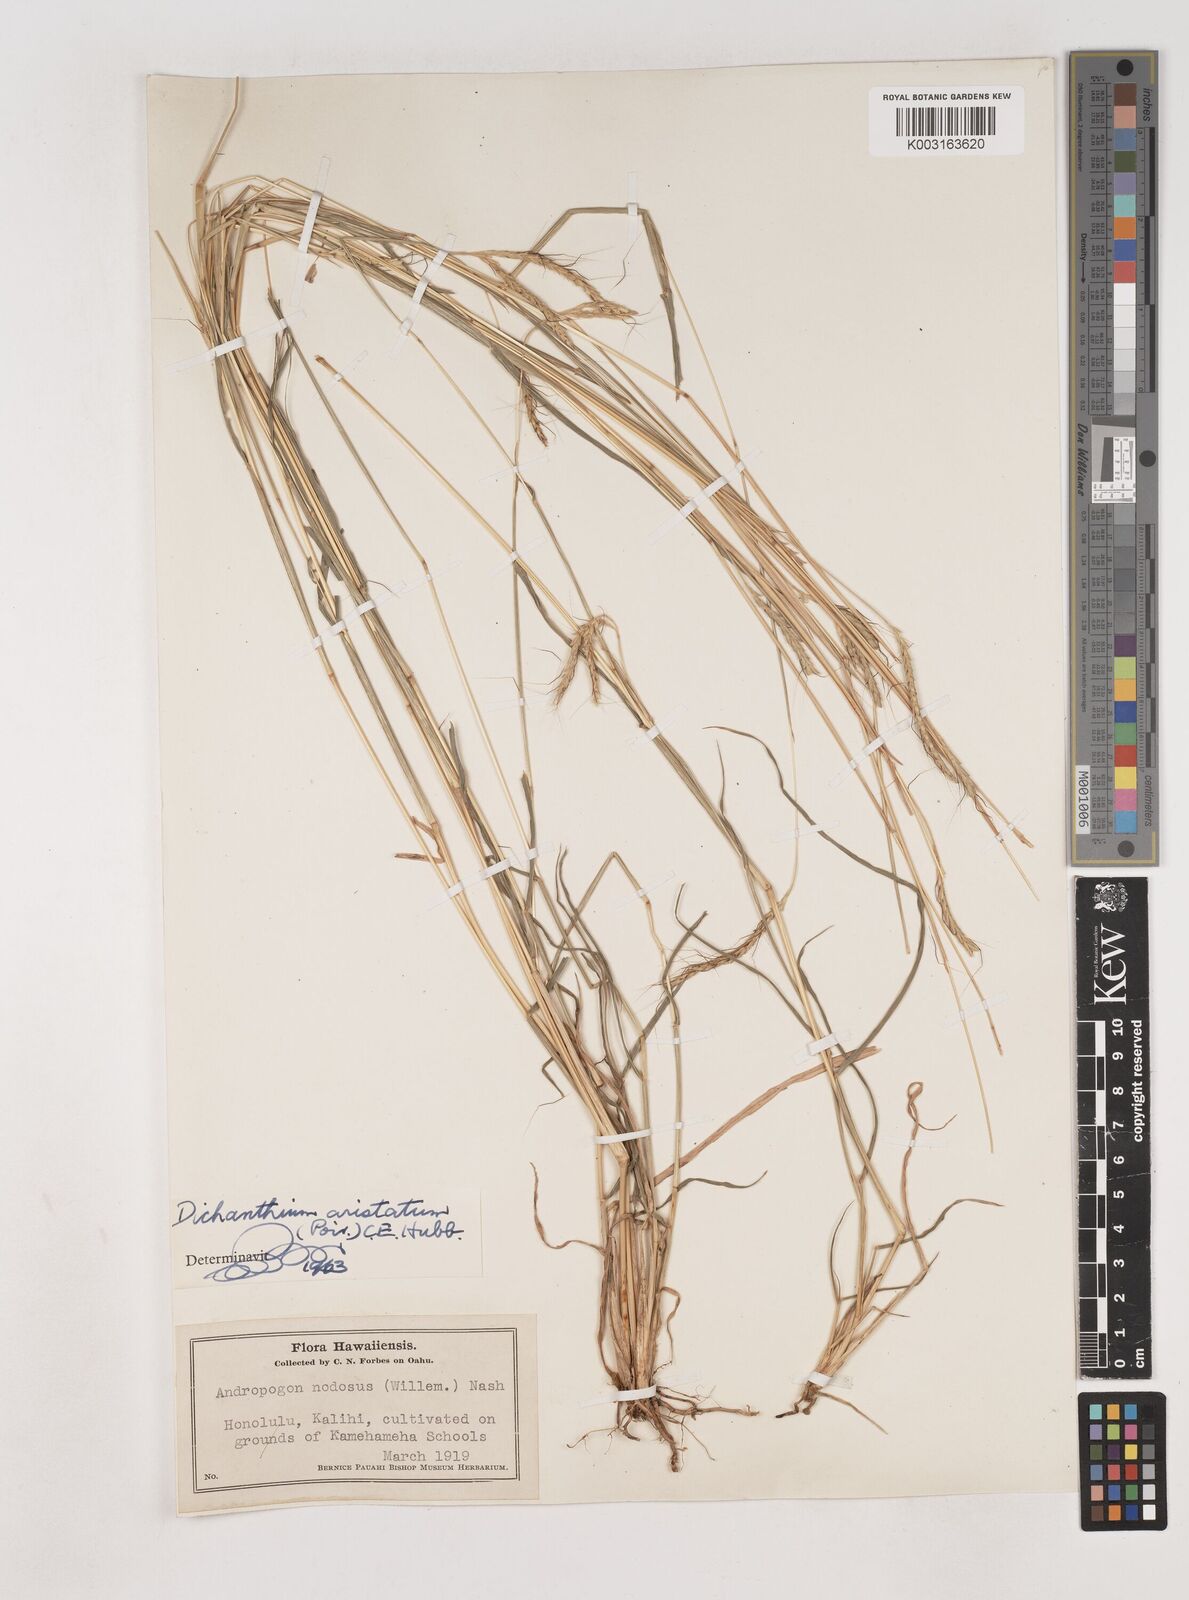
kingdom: Plantae
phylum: Tracheophyta
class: Liliopsida
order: Poales
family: Poaceae
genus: Dichanthium
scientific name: Dichanthium aristatum
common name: Angleton bluestem
